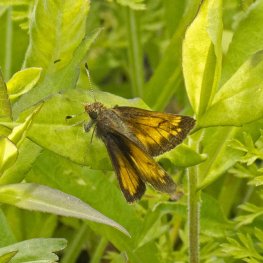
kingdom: Animalia
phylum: Arthropoda
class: Insecta
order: Lepidoptera
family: Hesperiidae
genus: Lon
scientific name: Lon hobomok
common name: Hobomok Skipper
